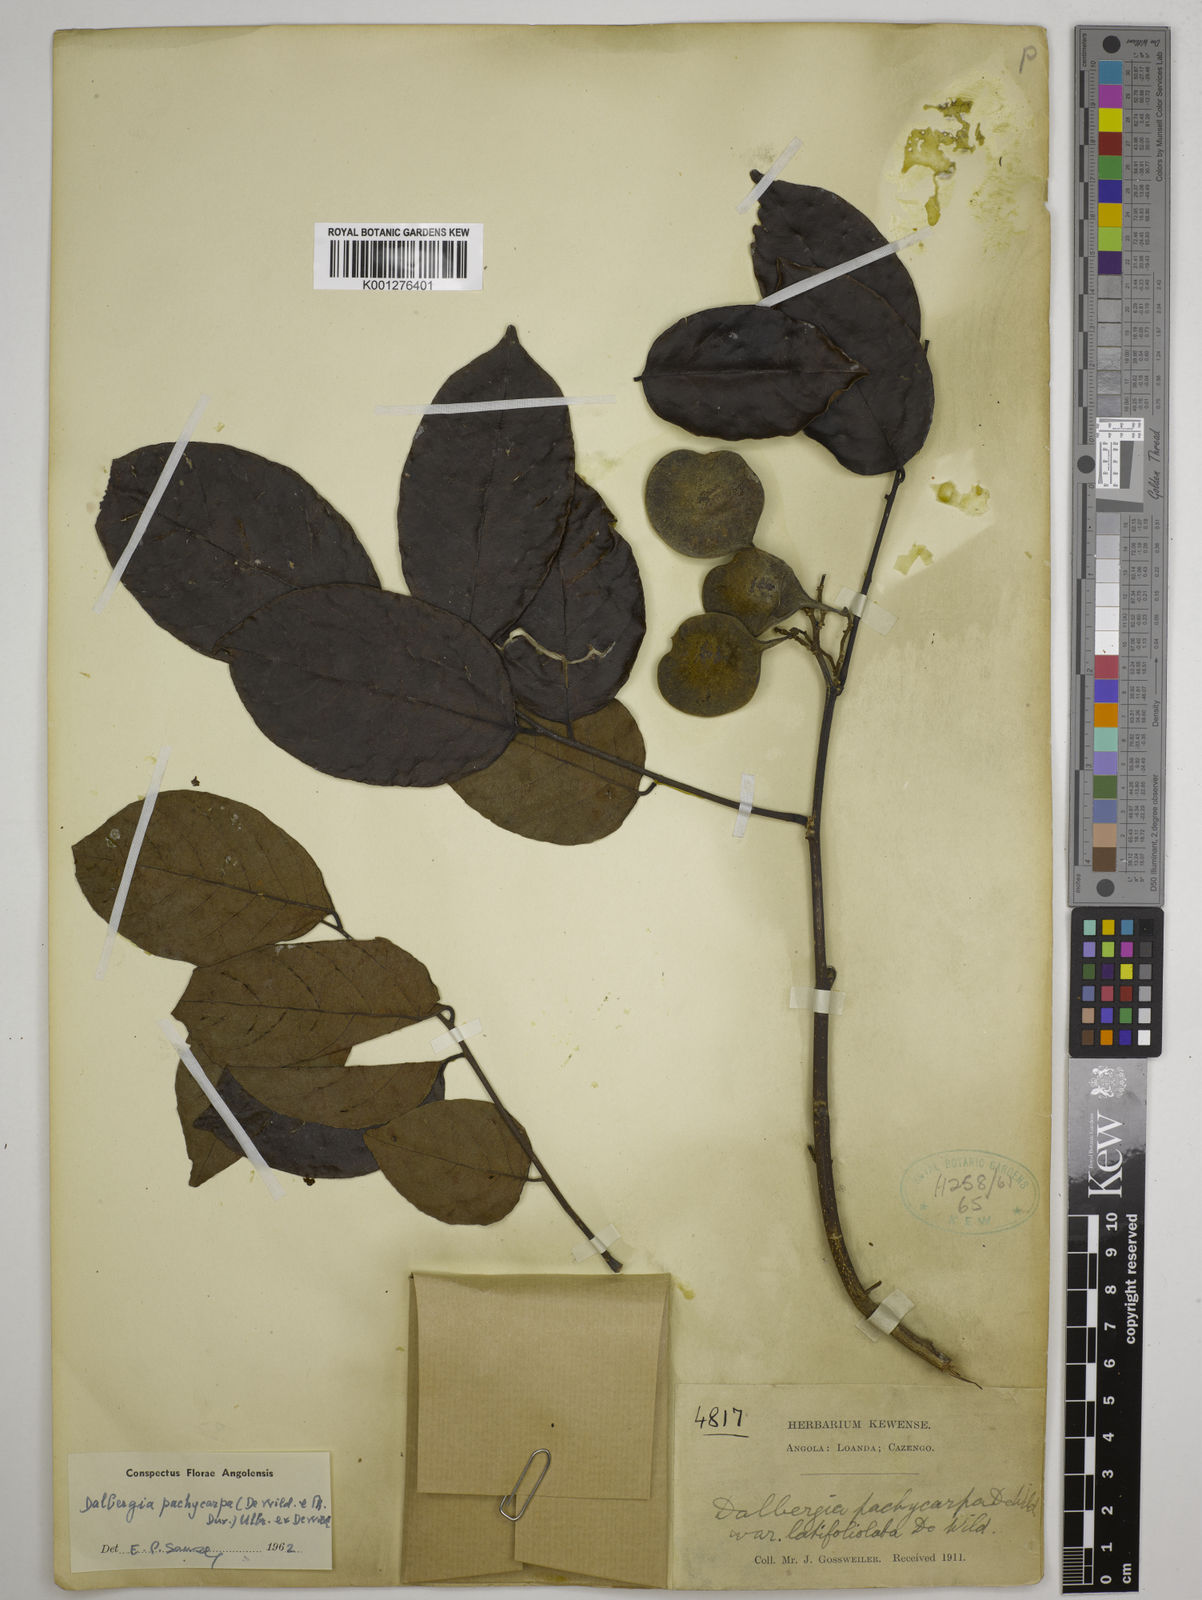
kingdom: Plantae
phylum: Tracheophyta
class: Magnoliopsida
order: Fabales
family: Fabaceae
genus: Dalbergia
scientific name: Dalbergia pachycarpa
